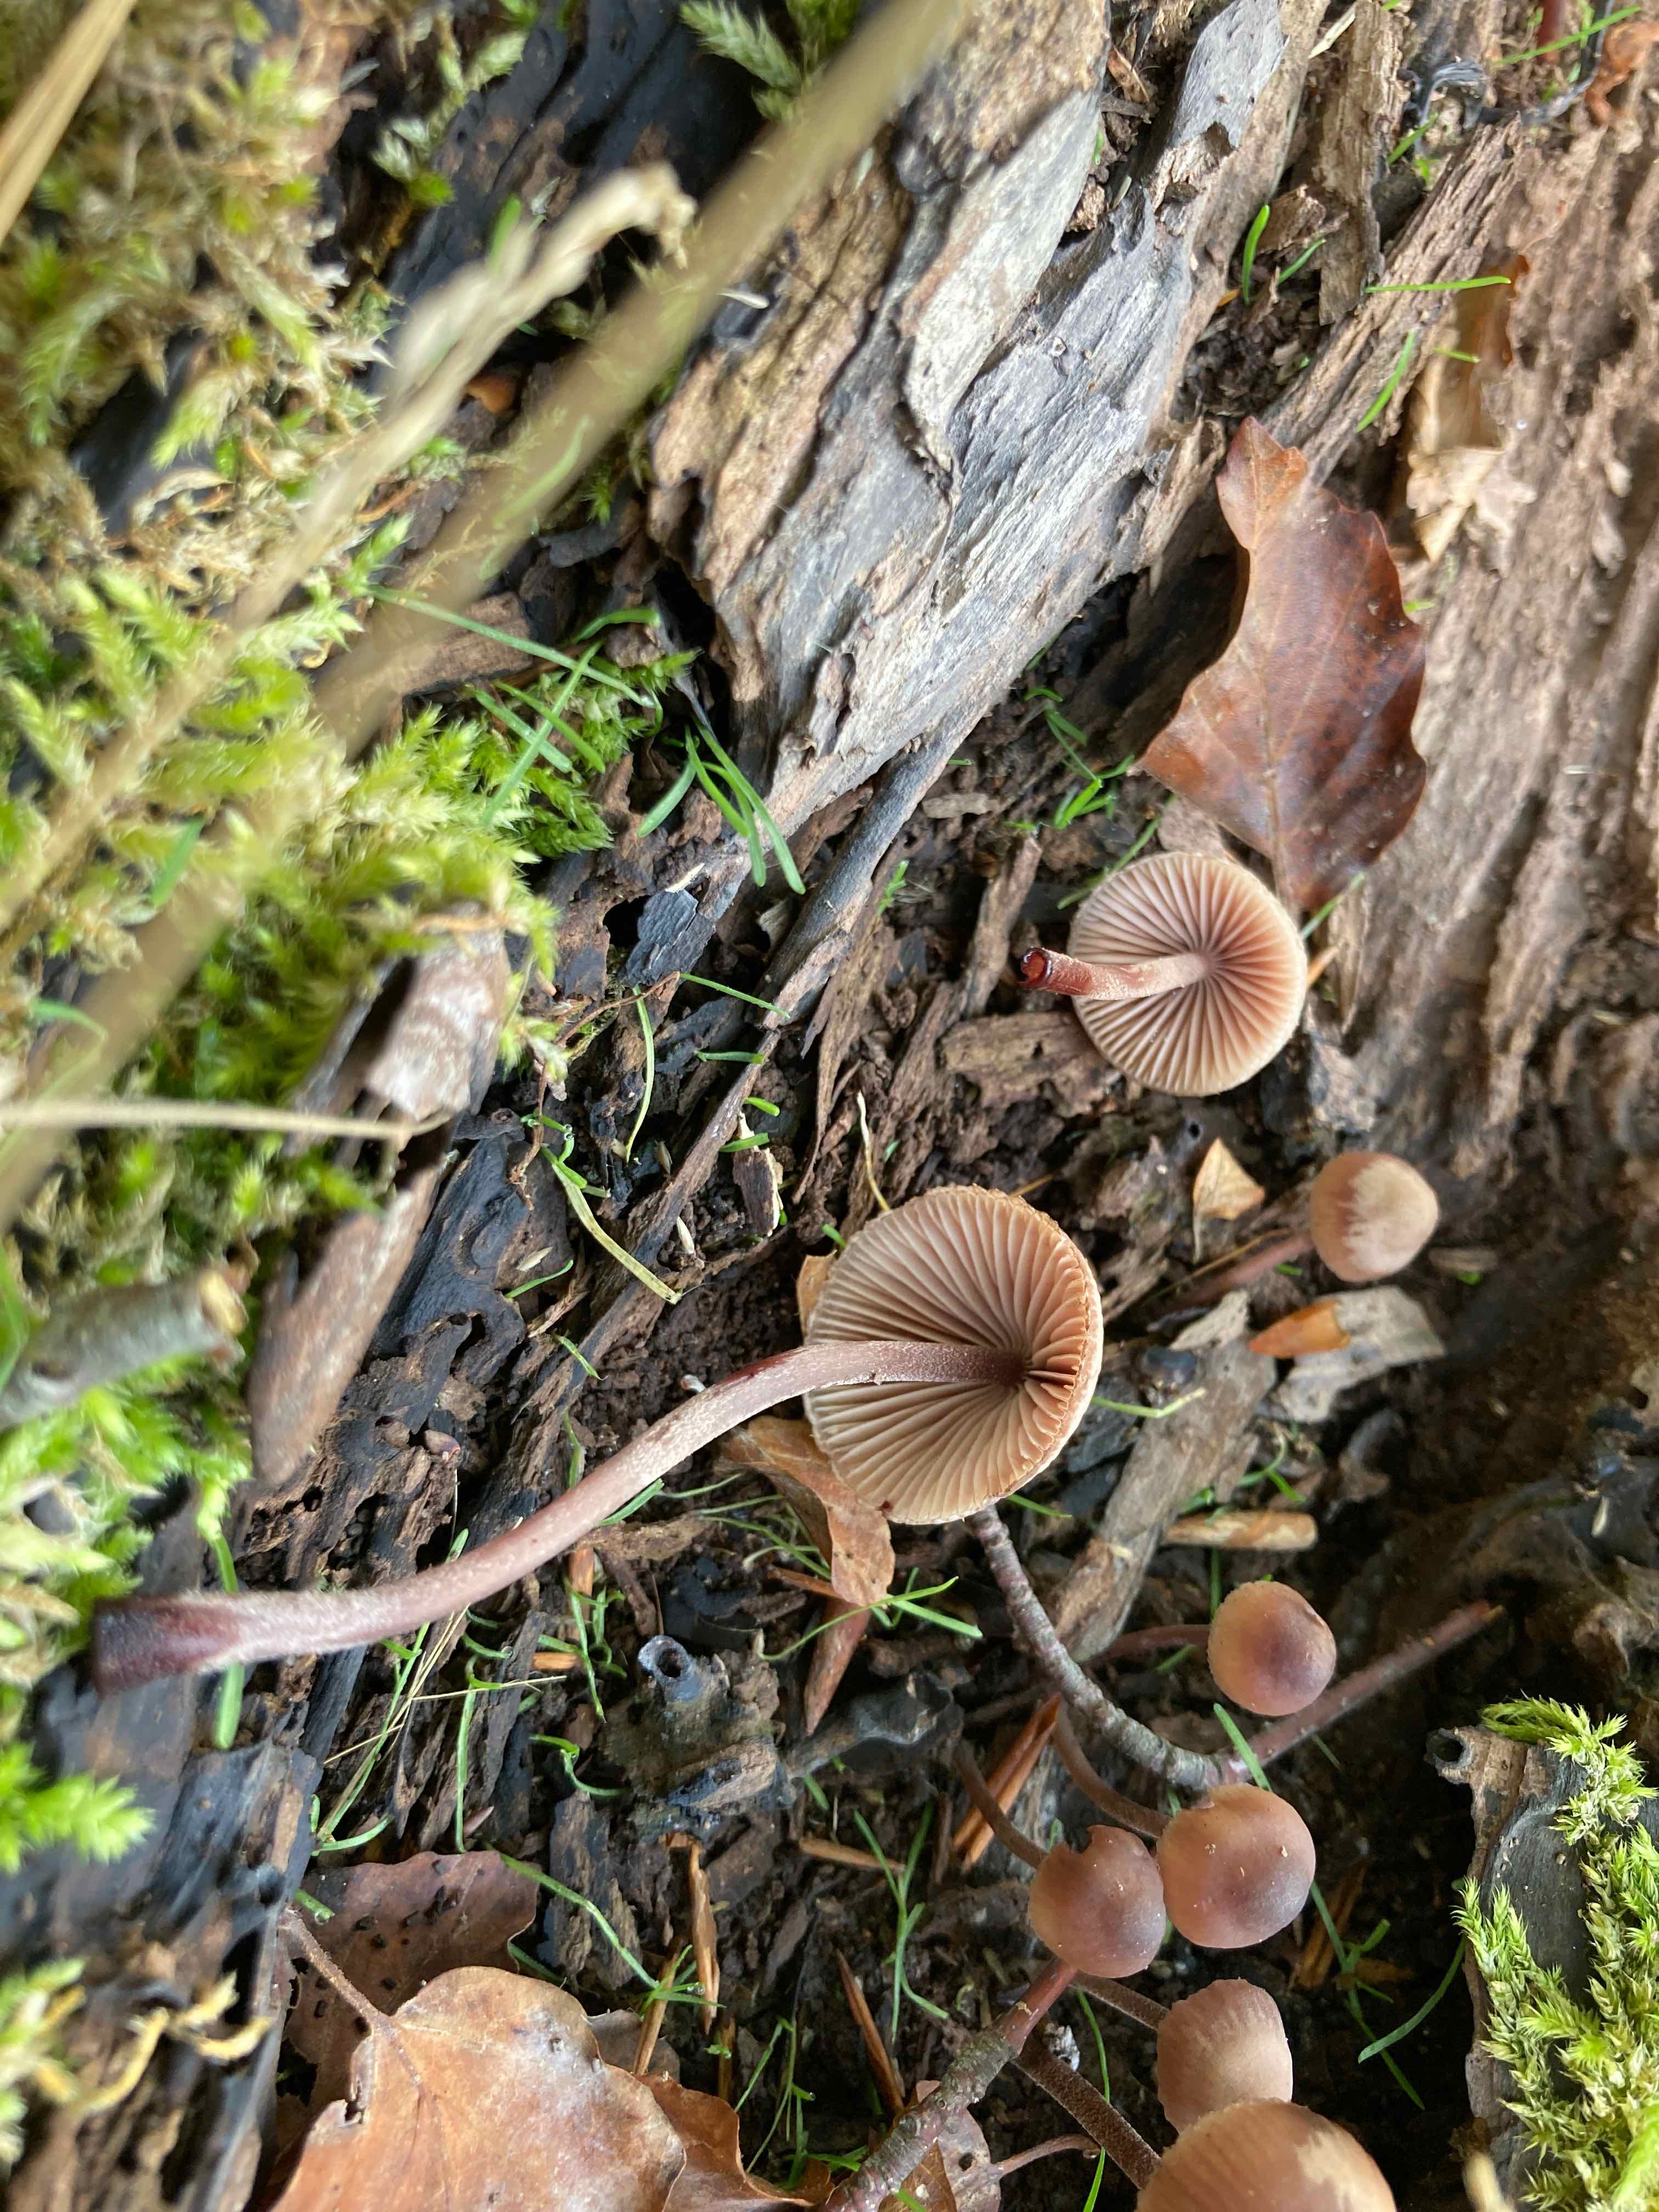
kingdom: Fungi
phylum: Basidiomycota
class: Agaricomycetes
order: Agaricales
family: Mycenaceae
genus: Mycena
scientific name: Mycena haematopus
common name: blødende huesvamp
